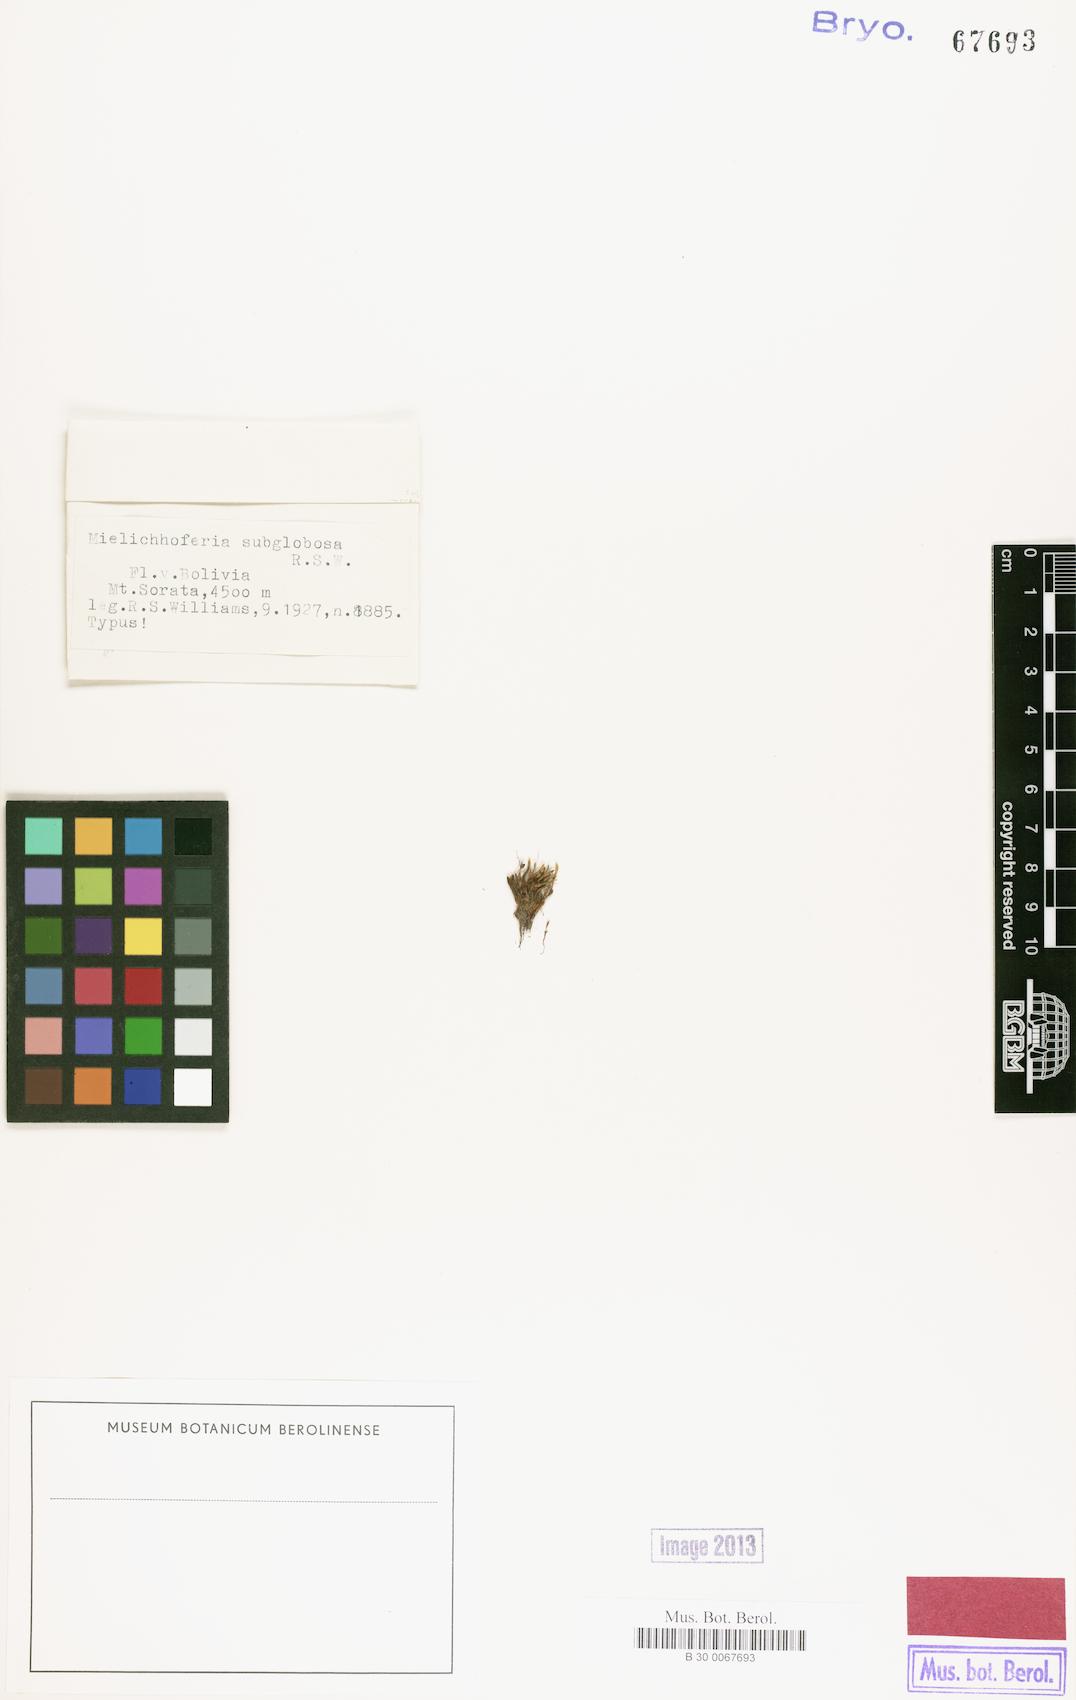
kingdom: Plantae
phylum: Bryophyta
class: Bryopsida
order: Bryales
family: Mniaceae
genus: Schizymenium
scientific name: Schizymenium subglobosum
